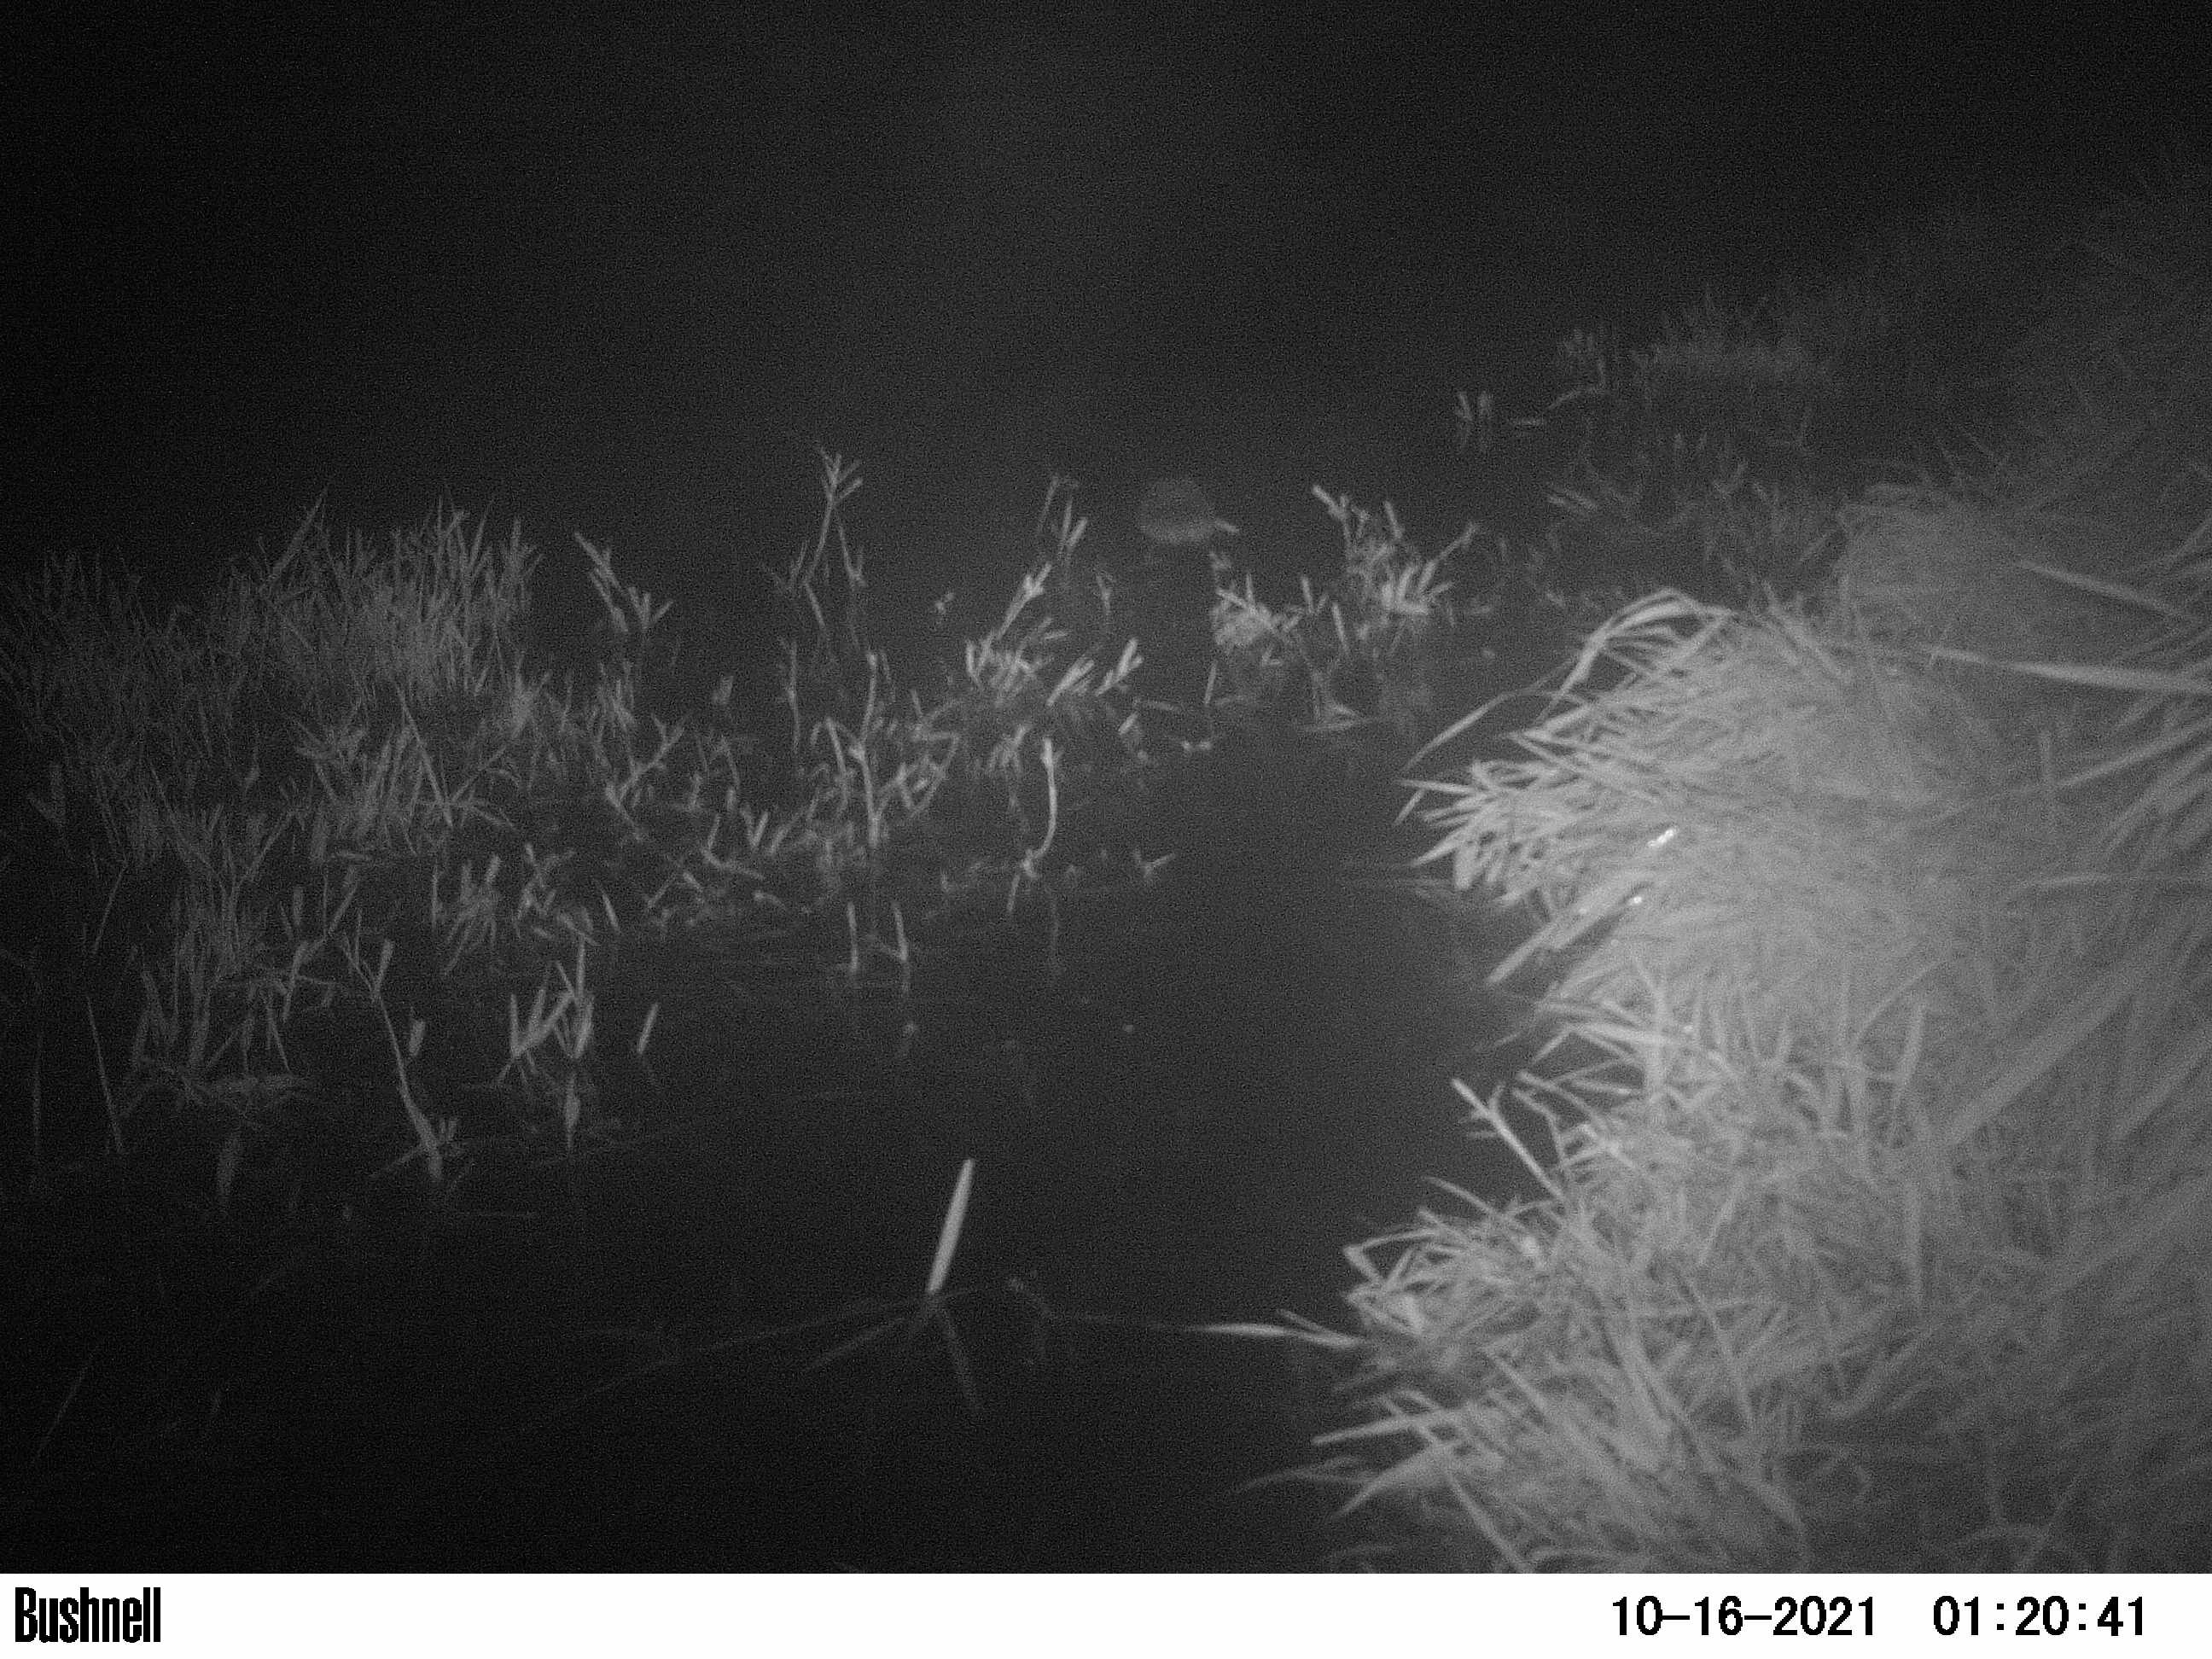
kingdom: Animalia
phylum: Chordata
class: Mammalia
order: Rodentia
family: Cricetidae
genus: Ondatra
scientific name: Ondatra zibethicus
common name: Muskrat
